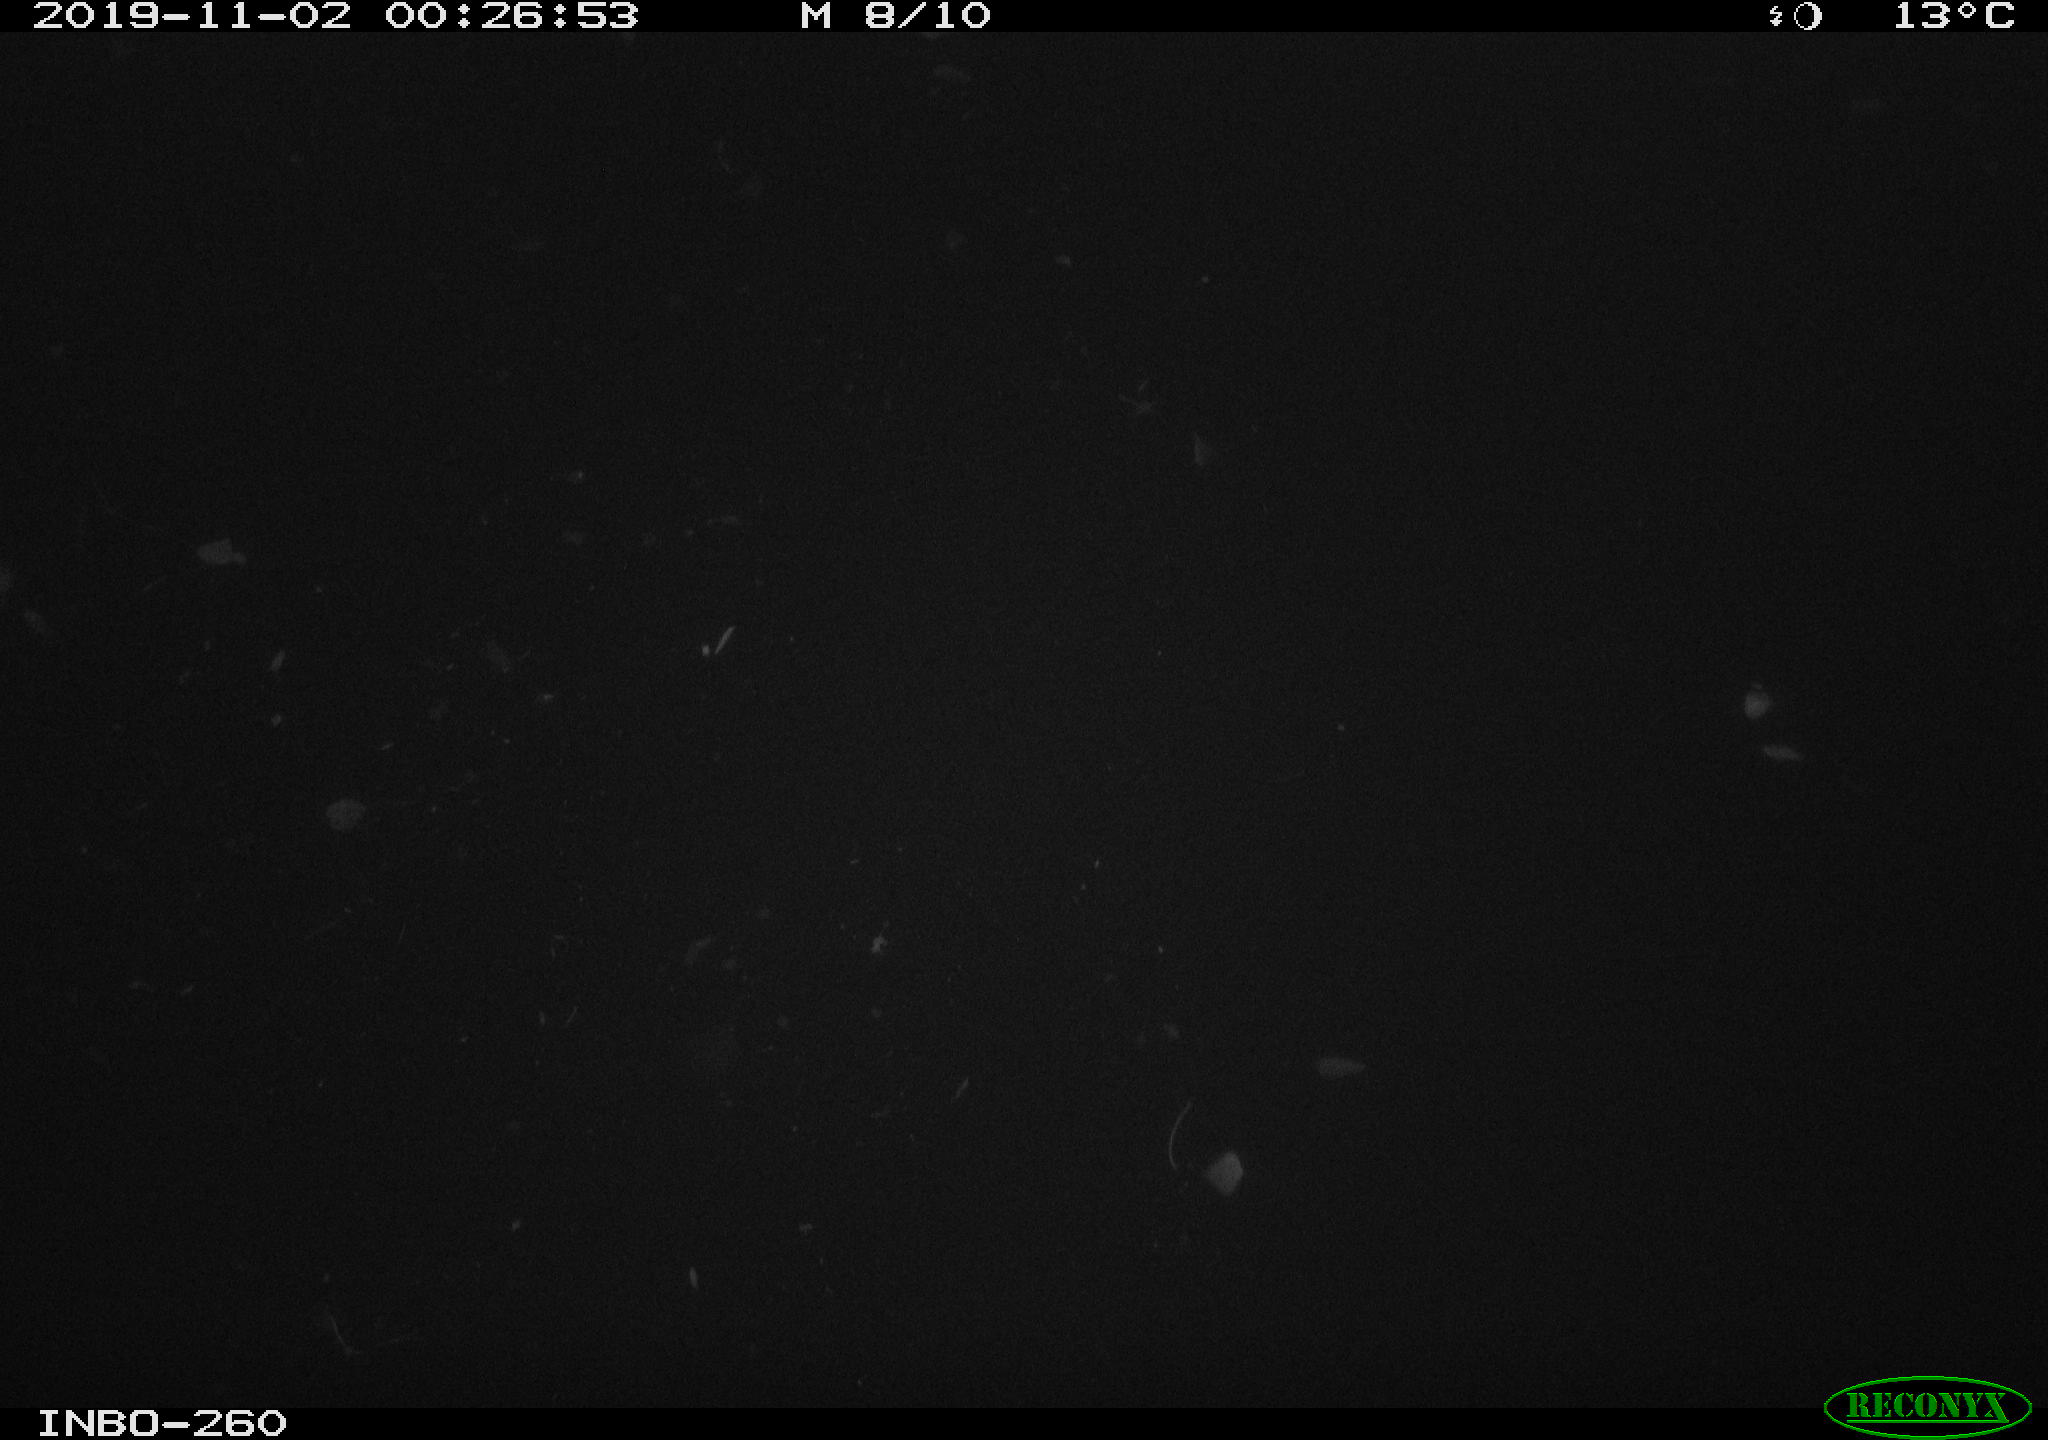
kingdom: Animalia
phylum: Chordata
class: Aves
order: Anseriformes
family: Anatidae
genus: Anas
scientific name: Anas platyrhynchos
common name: Mallard
